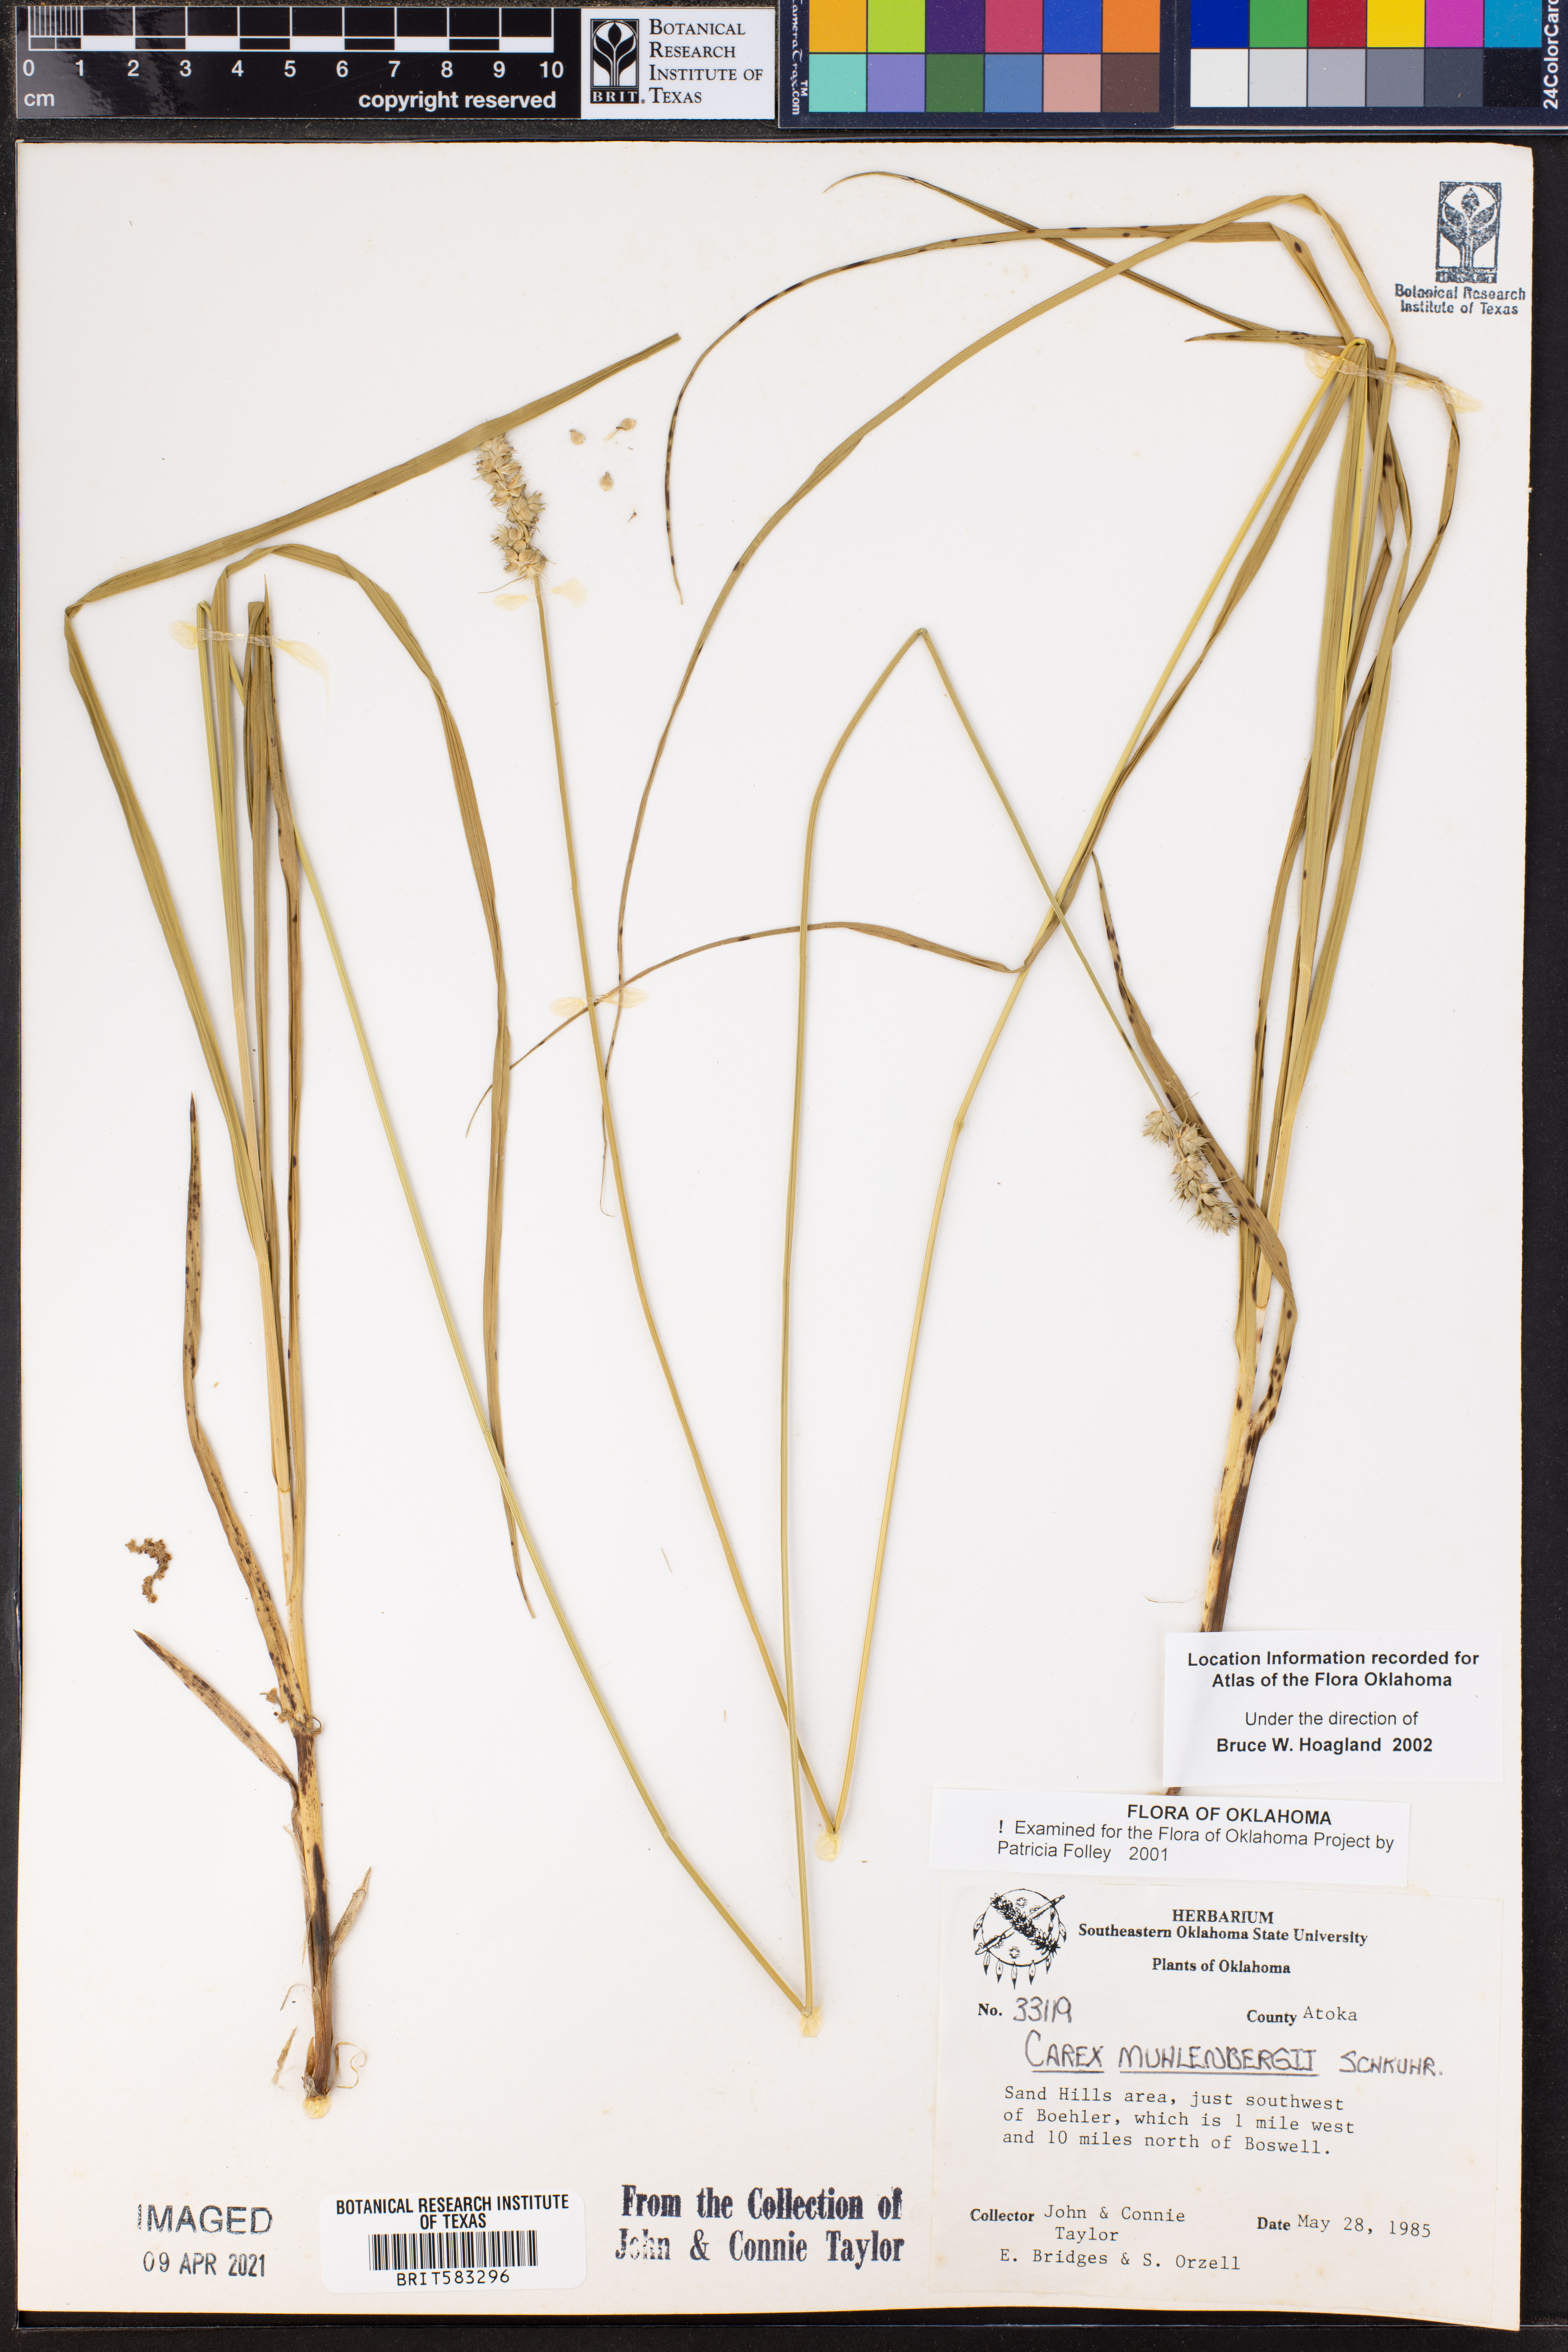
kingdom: Plantae
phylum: Tracheophyta
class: Liliopsida
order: Poales
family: Cyperaceae
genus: Carex
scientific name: Carex vulpinoidea
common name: American fox-sedge
